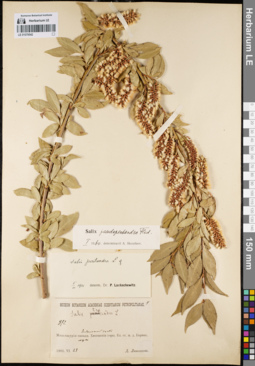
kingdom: Plantae
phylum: Tracheophyta
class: Magnoliopsida
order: Malpighiales
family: Salicaceae
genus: Salix
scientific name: Salix pseudopentandra
